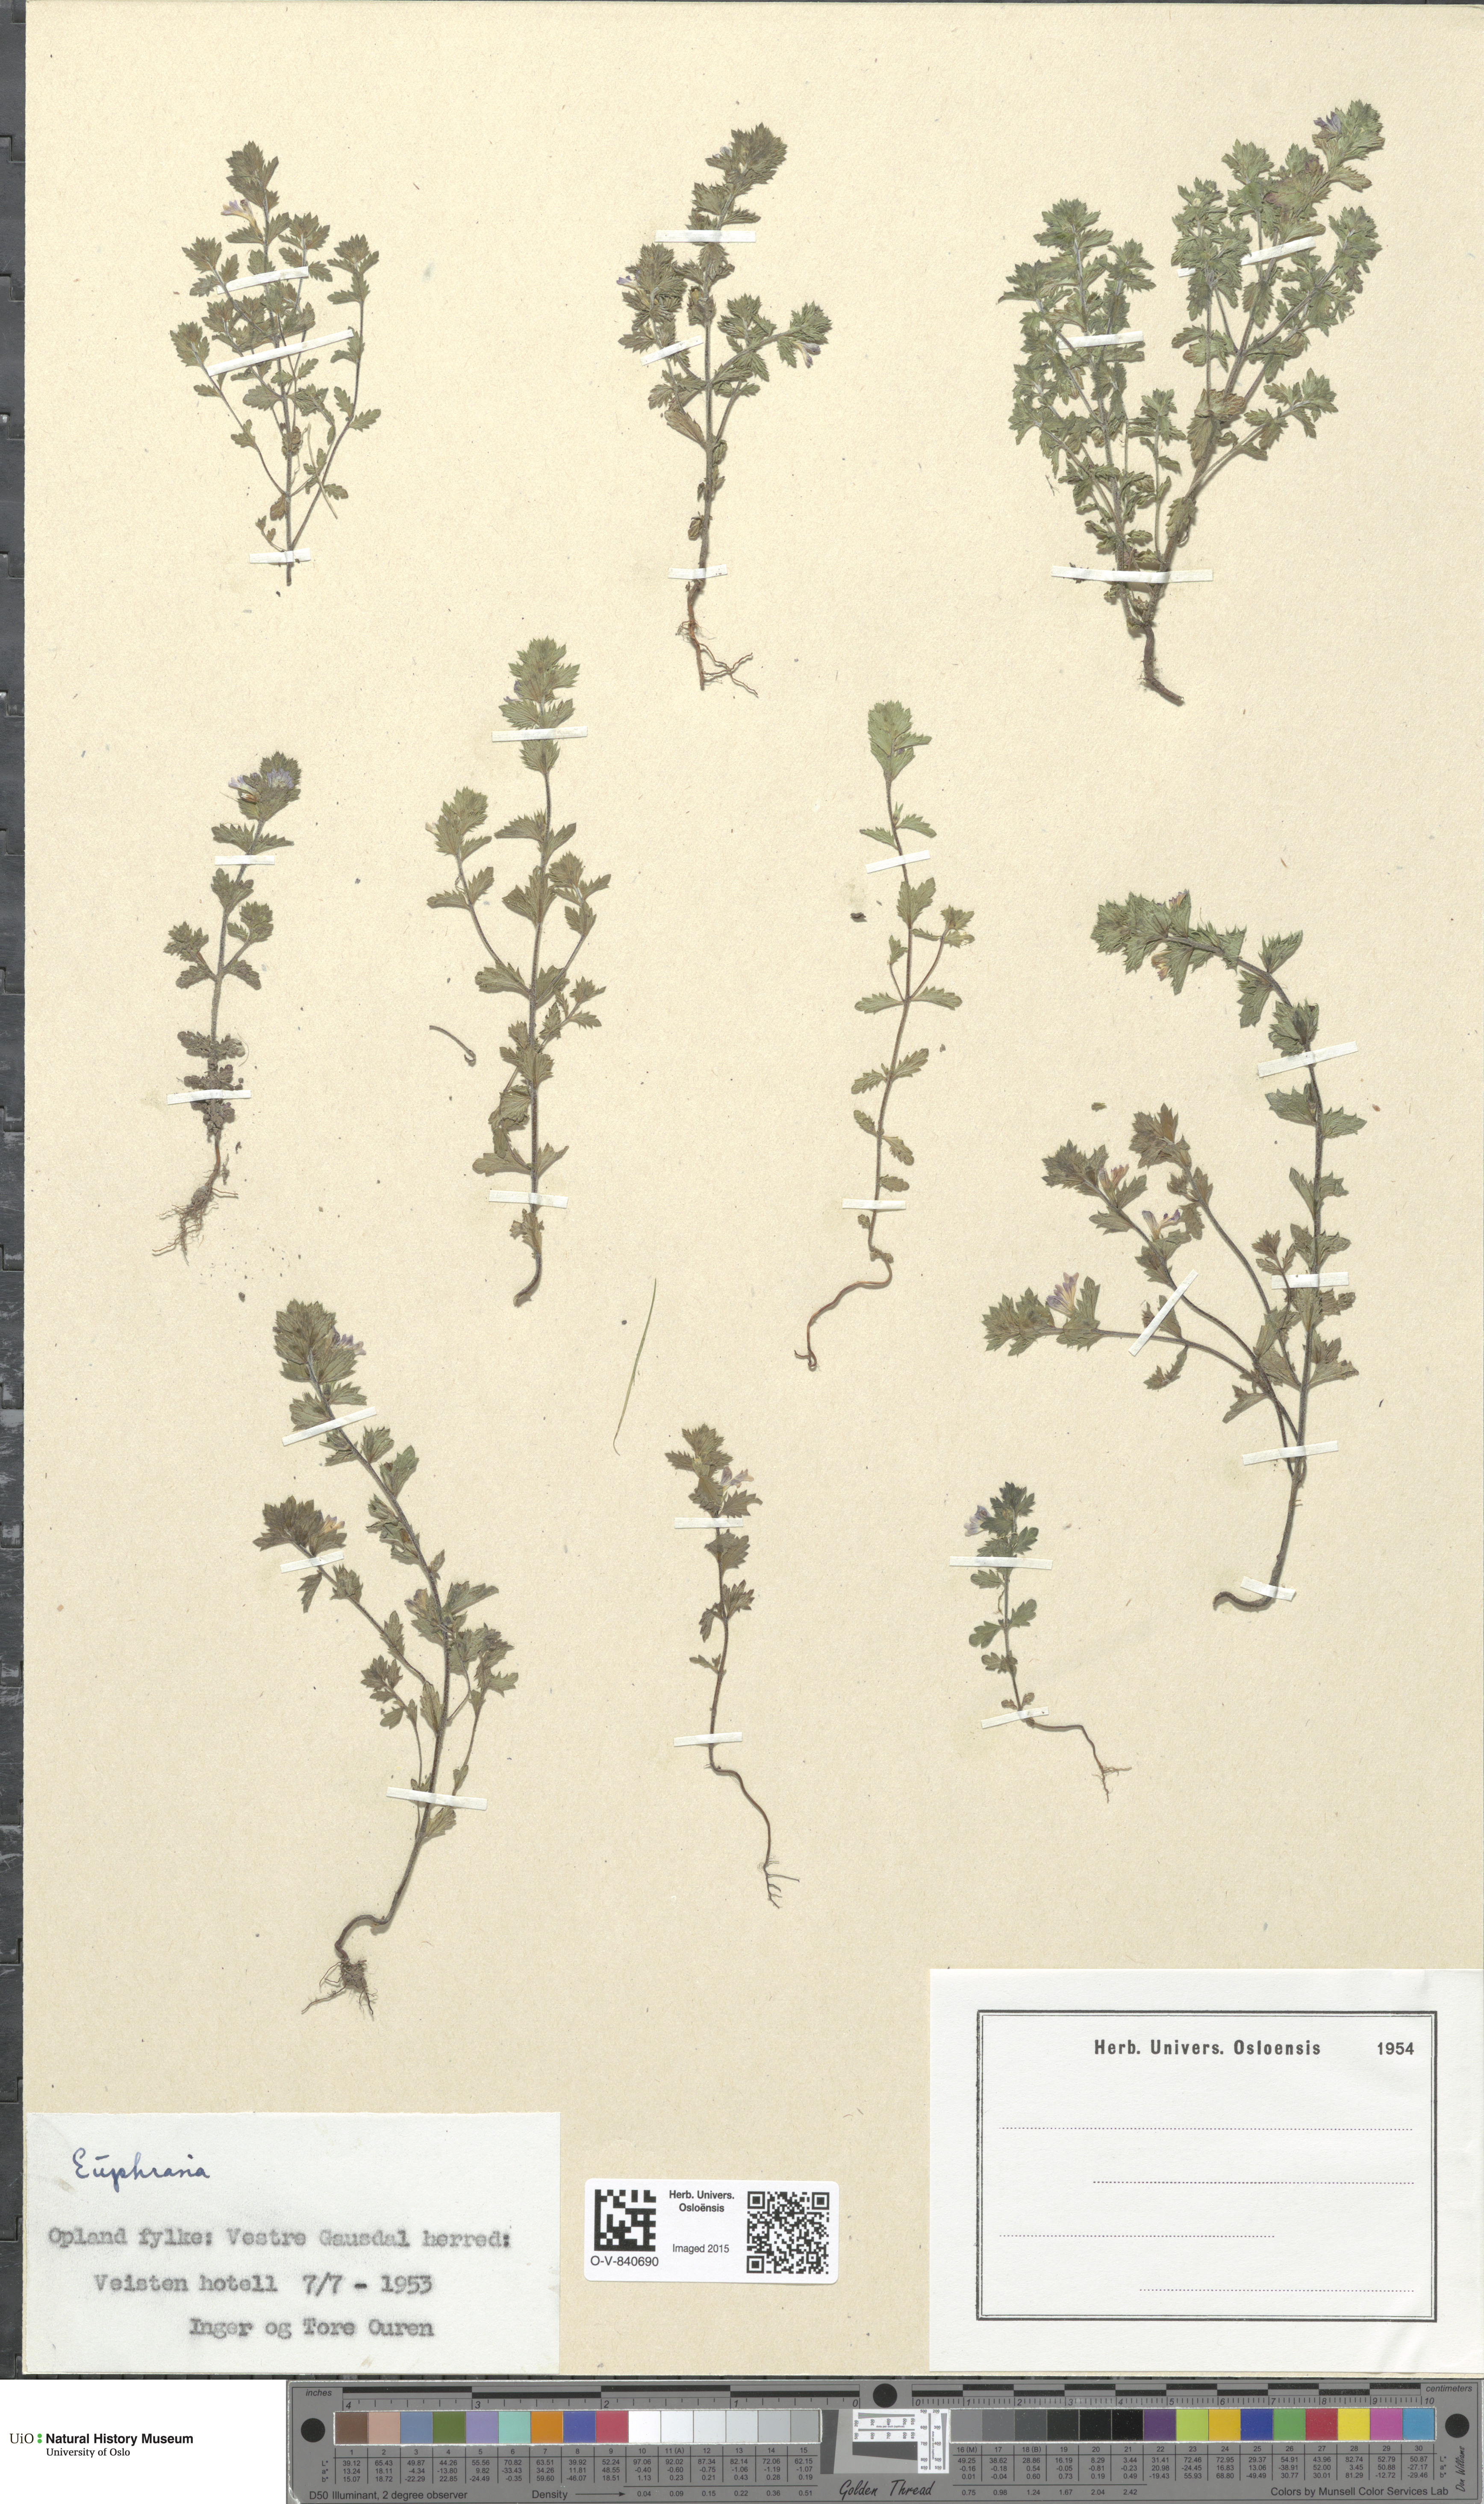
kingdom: Plantae
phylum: Tracheophyta
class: Magnoliopsida
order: Lamiales
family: Orobanchaceae
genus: Euphrasia
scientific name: Euphrasia
